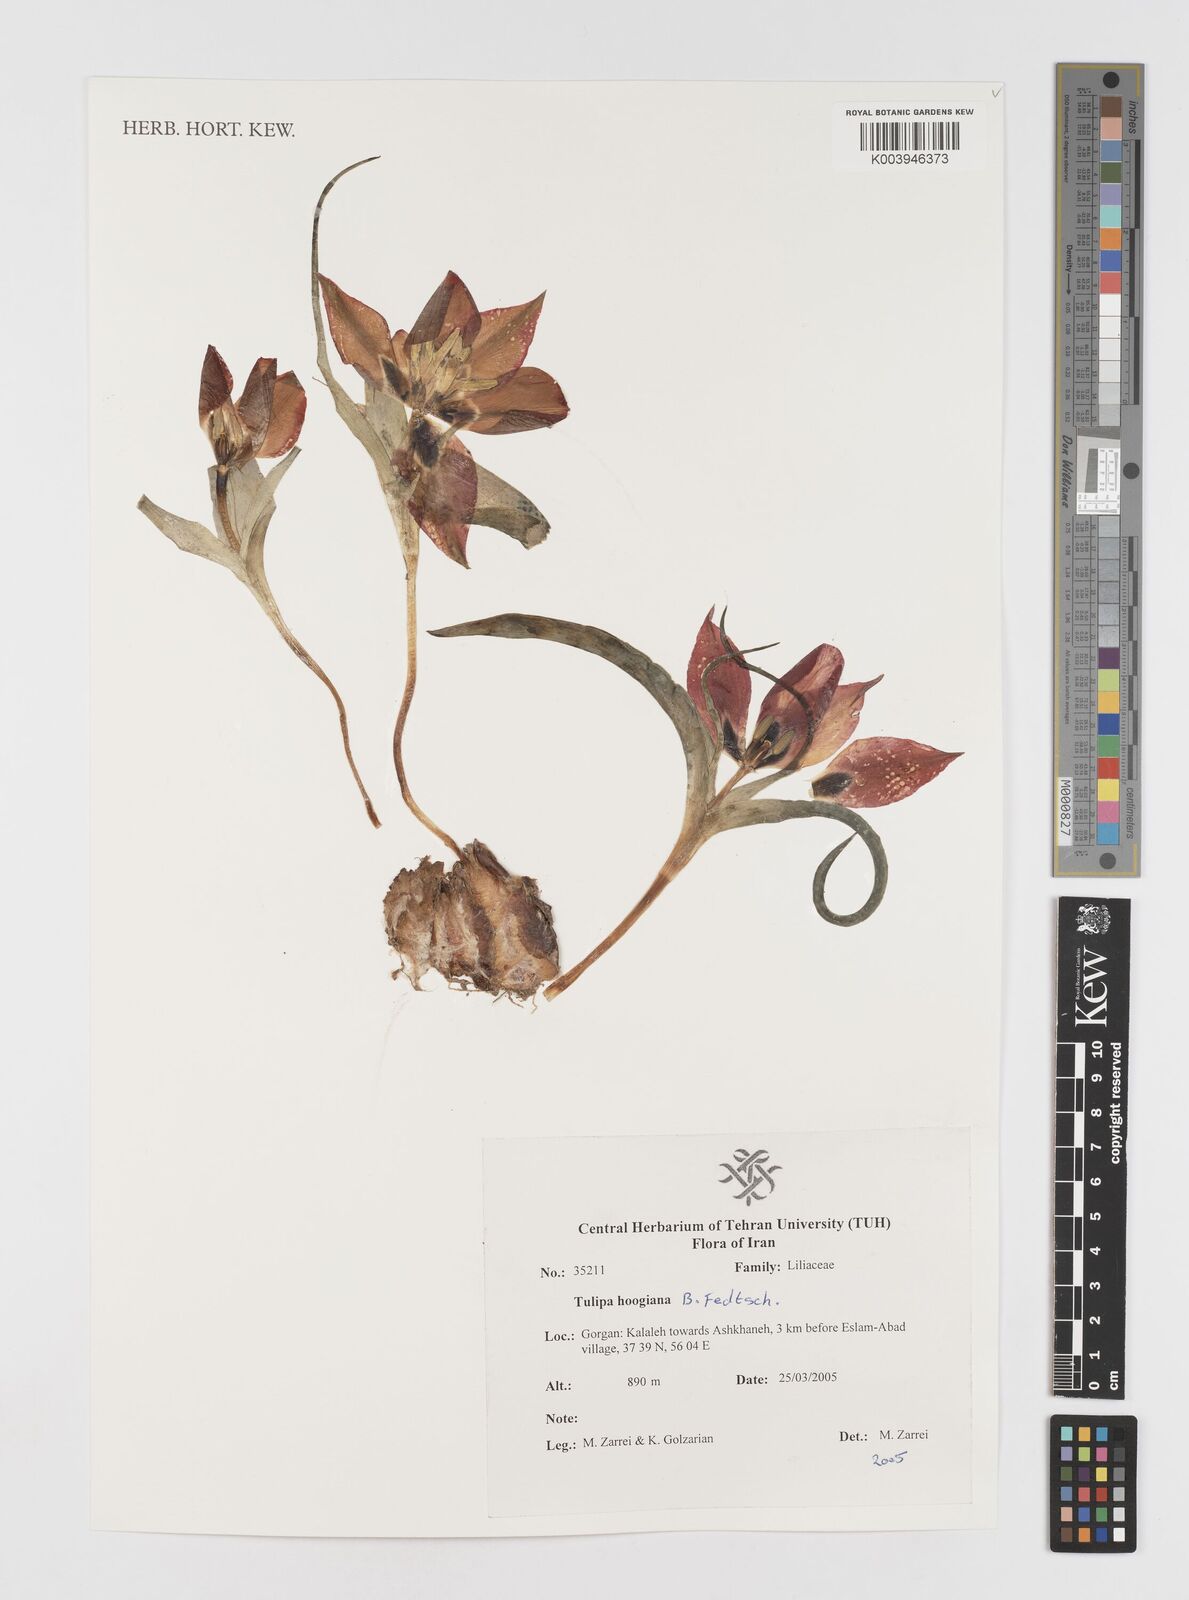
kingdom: Plantae
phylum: Tracheophyta
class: Liliopsida
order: Liliales
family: Liliaceae
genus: Tulipa
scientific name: Tulipa hoogiana
